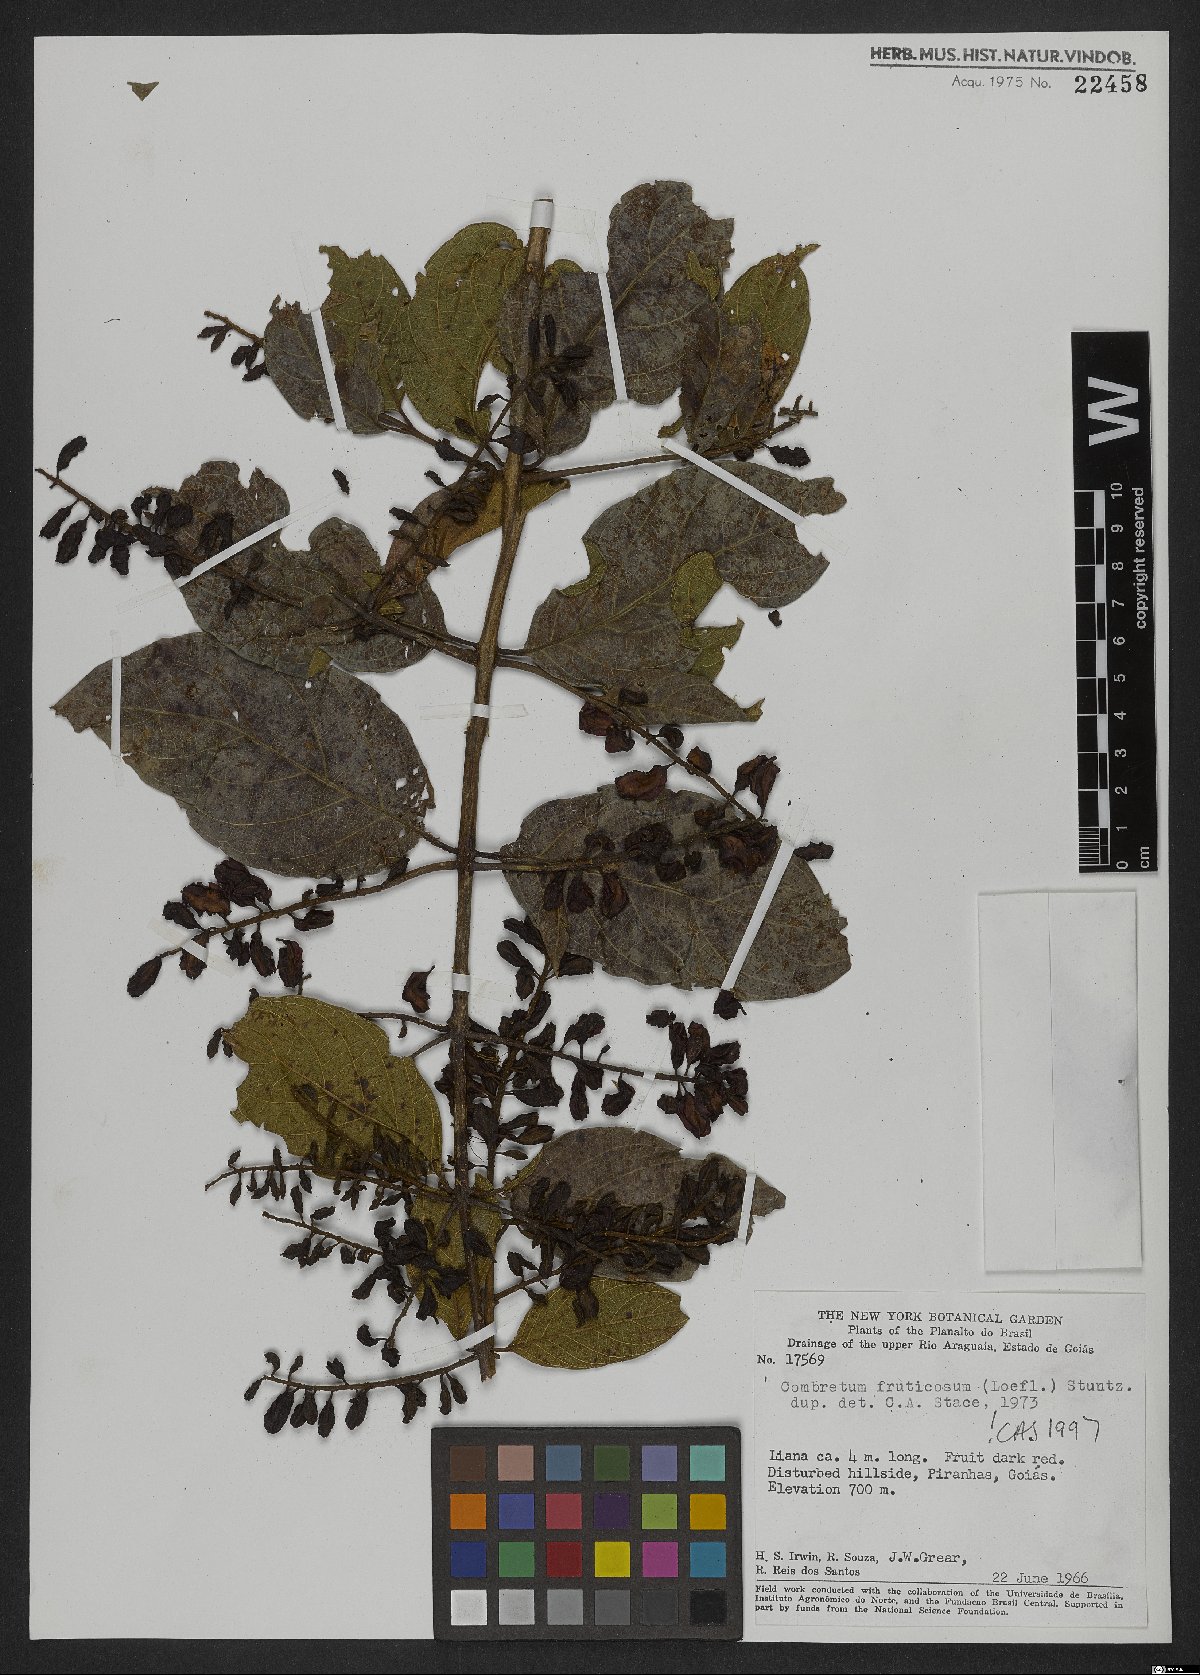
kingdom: Plantae
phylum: Tracheophyta
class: Magnoliopsida
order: Myrtales
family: Combretaceae
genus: Combretum
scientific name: Combretum fruticosum
